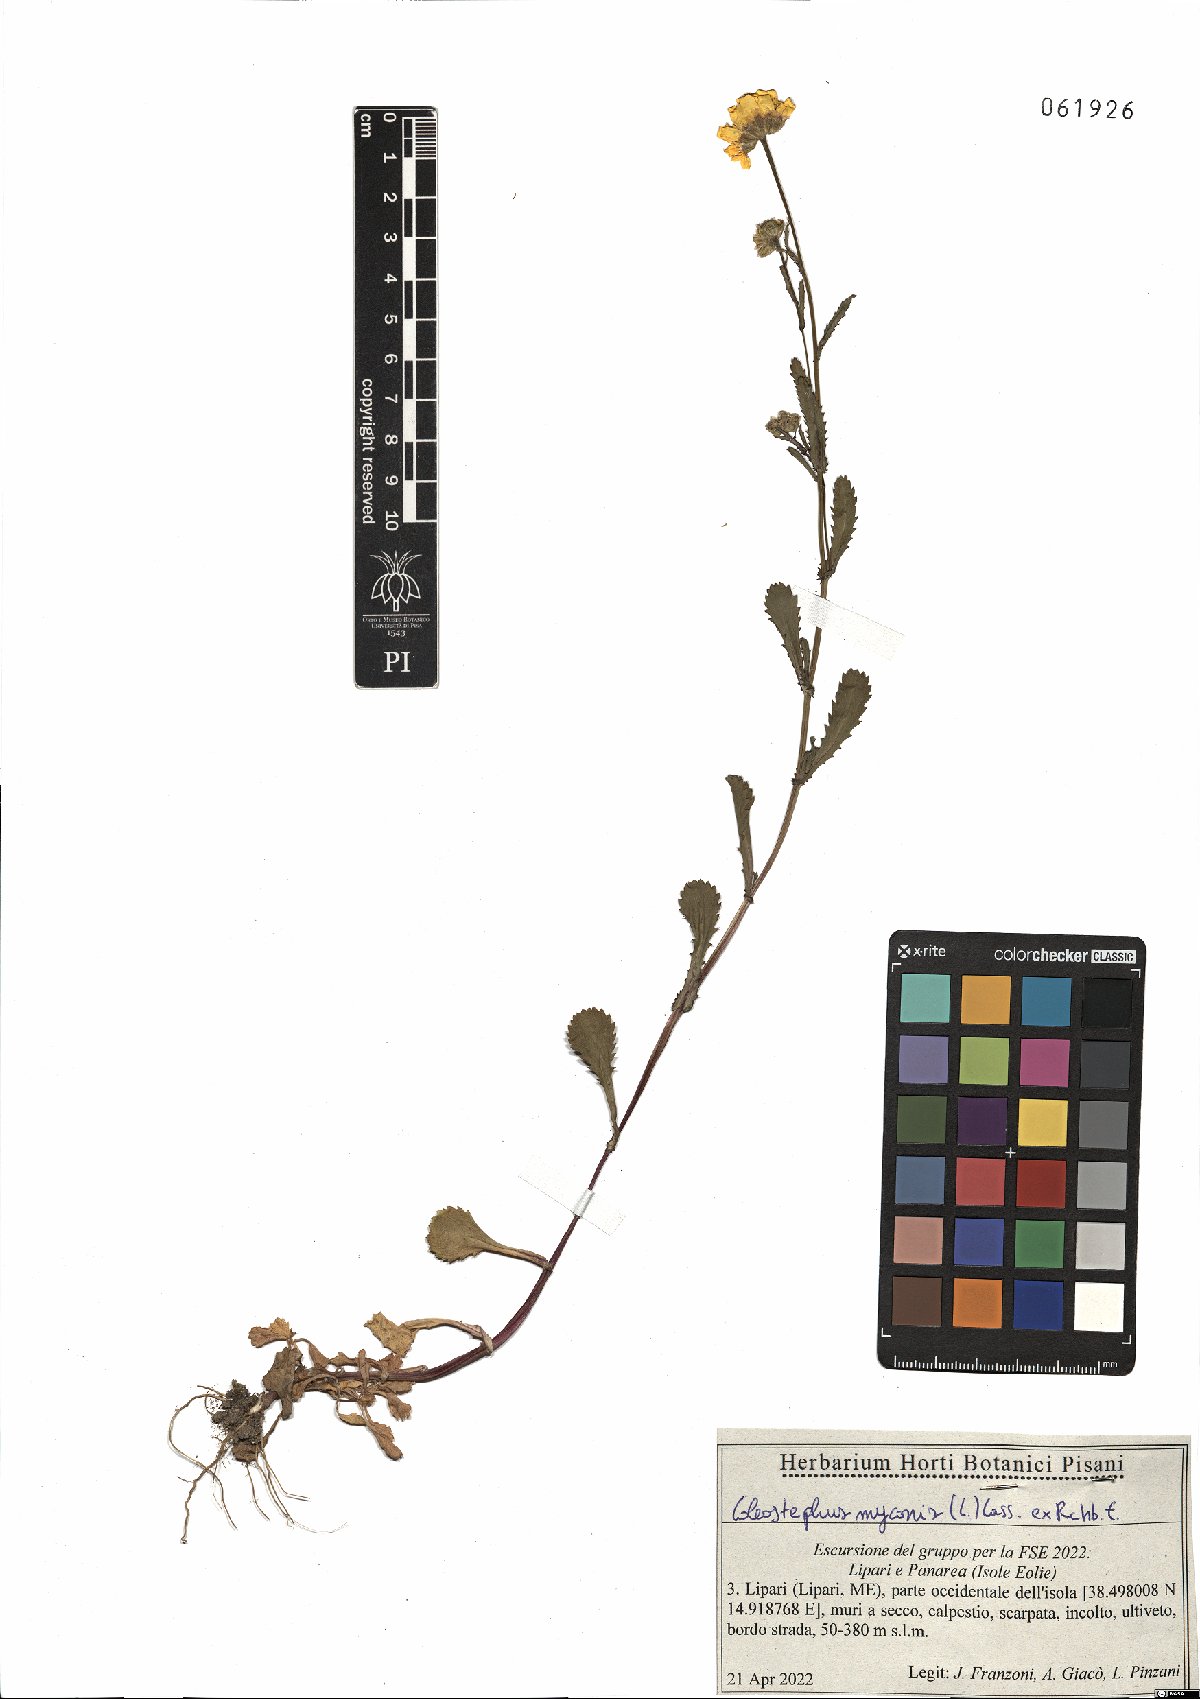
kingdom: Plantae
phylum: Tracheophyta
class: Magnoliopsida
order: Asterales
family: Asteraceae
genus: Coleostephus
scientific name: Coleostephus myconis
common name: Mediterranean marigold
